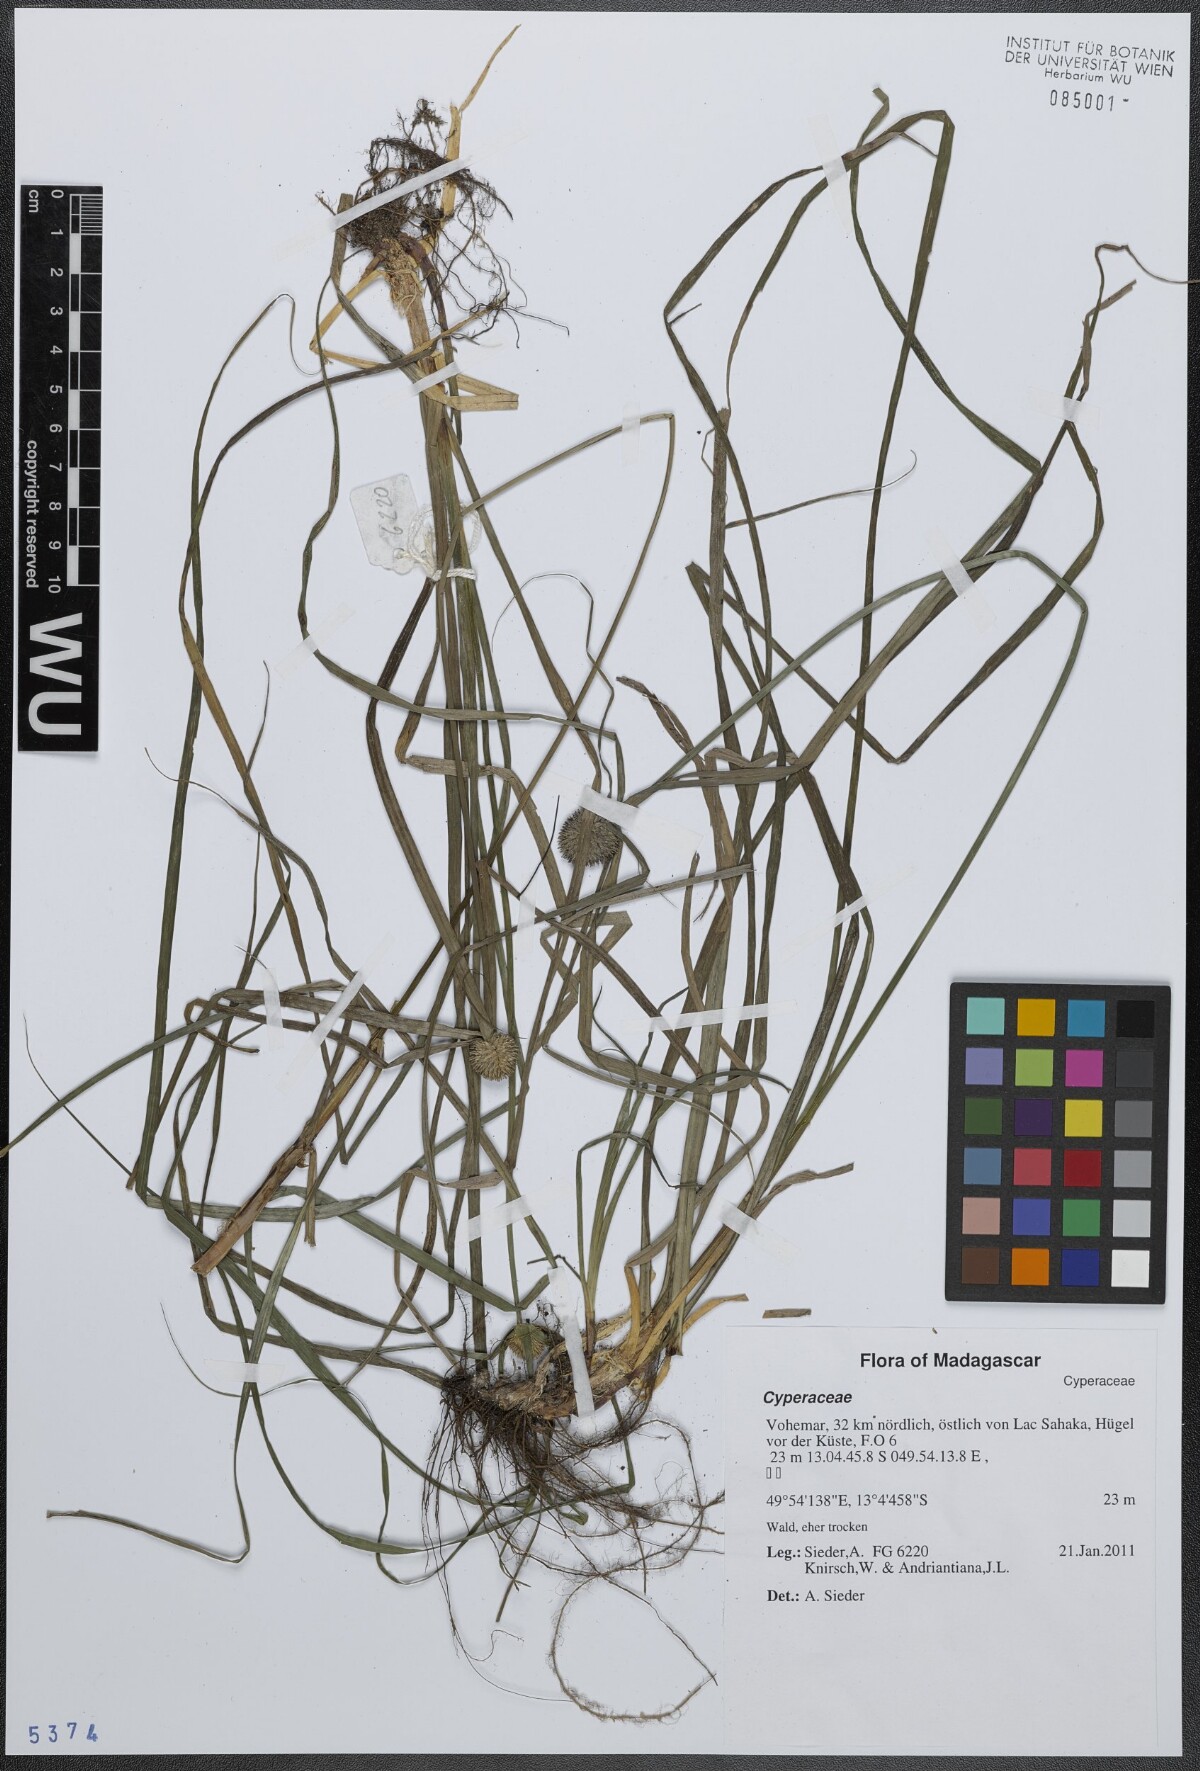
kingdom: Plantae
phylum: Tracheophyta
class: Liliopsida
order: Poales
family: Cyperaceae
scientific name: Cyperaceae
